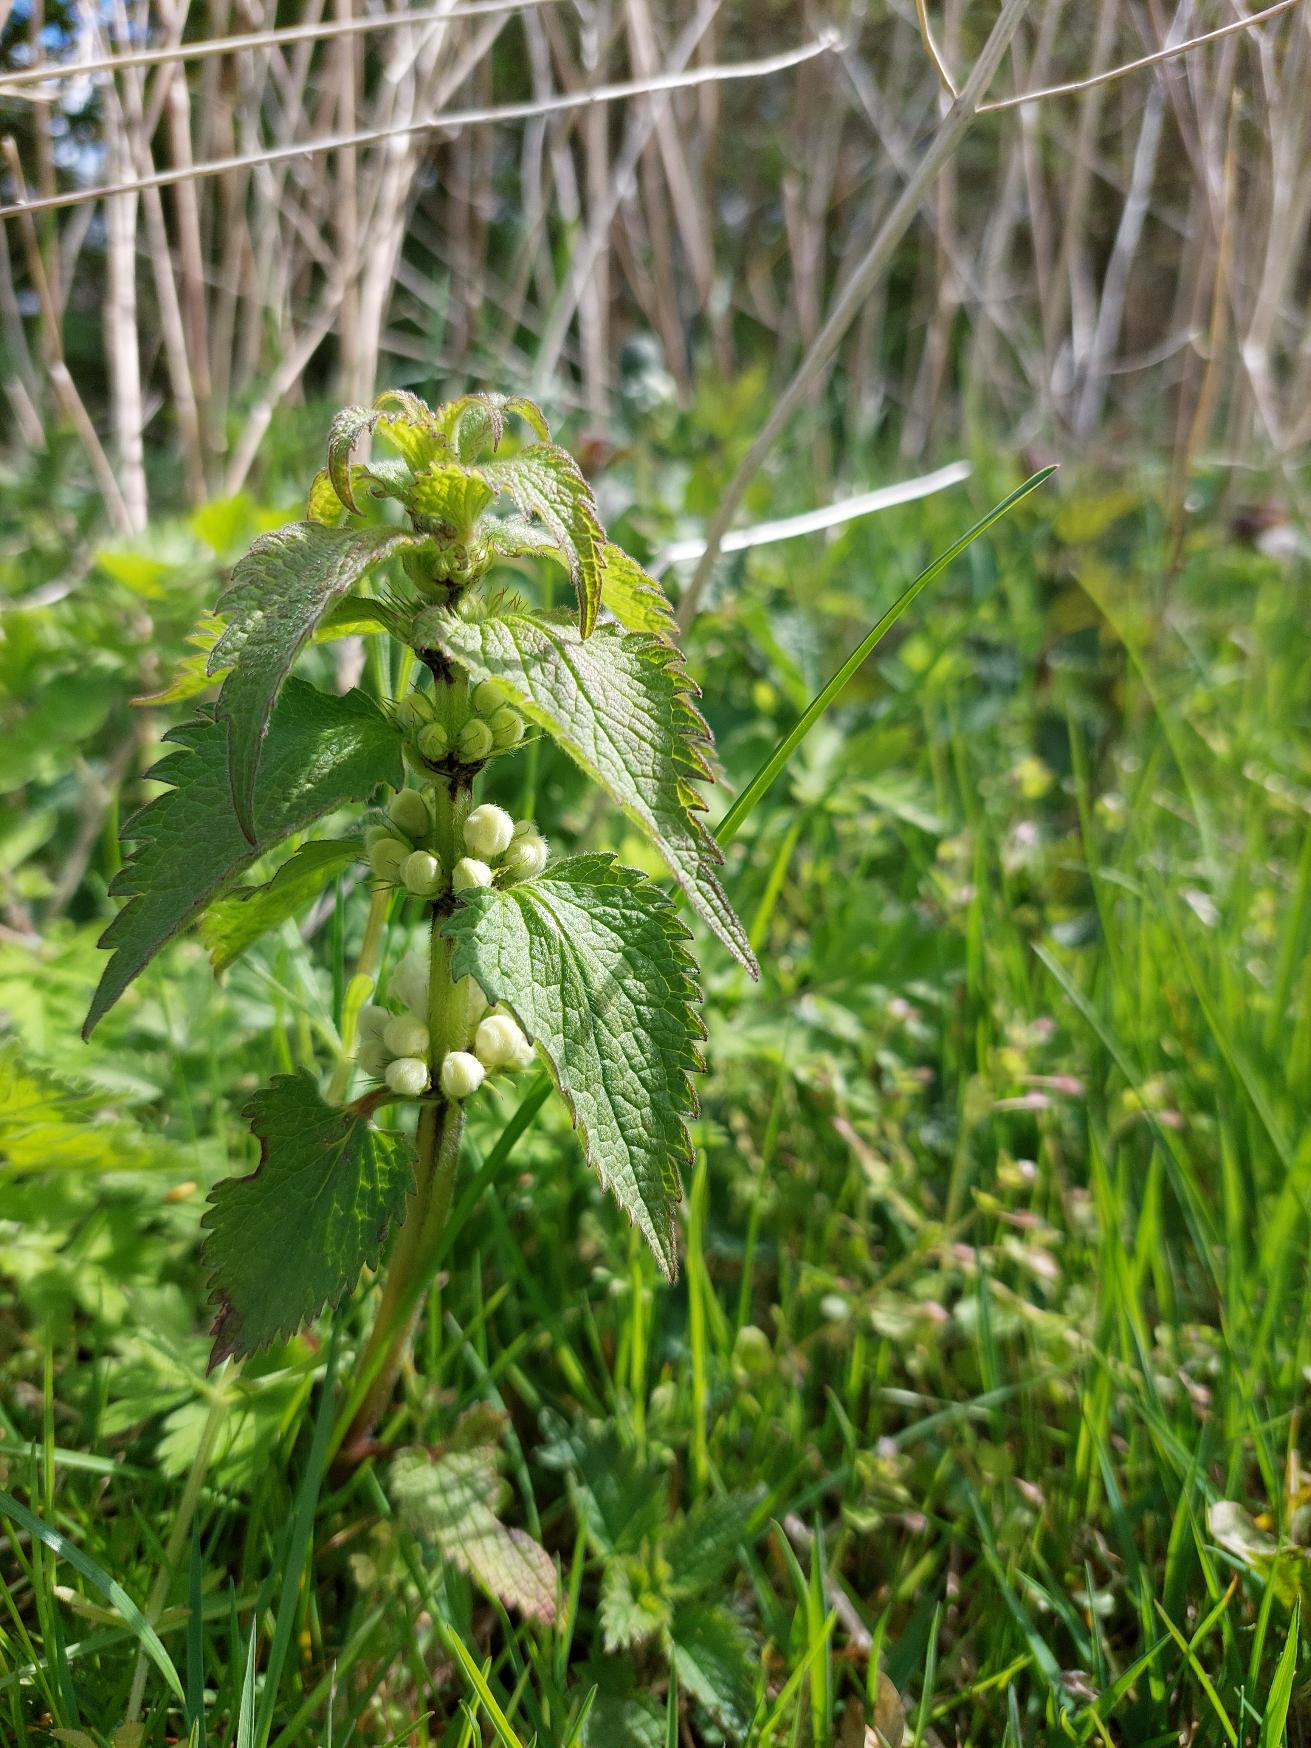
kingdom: Plantae
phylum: Tracheophyta
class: Magnoliopsida
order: Lamiales
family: Lamiaceae
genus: Lamium
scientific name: Lamium album
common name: Døvnælde
